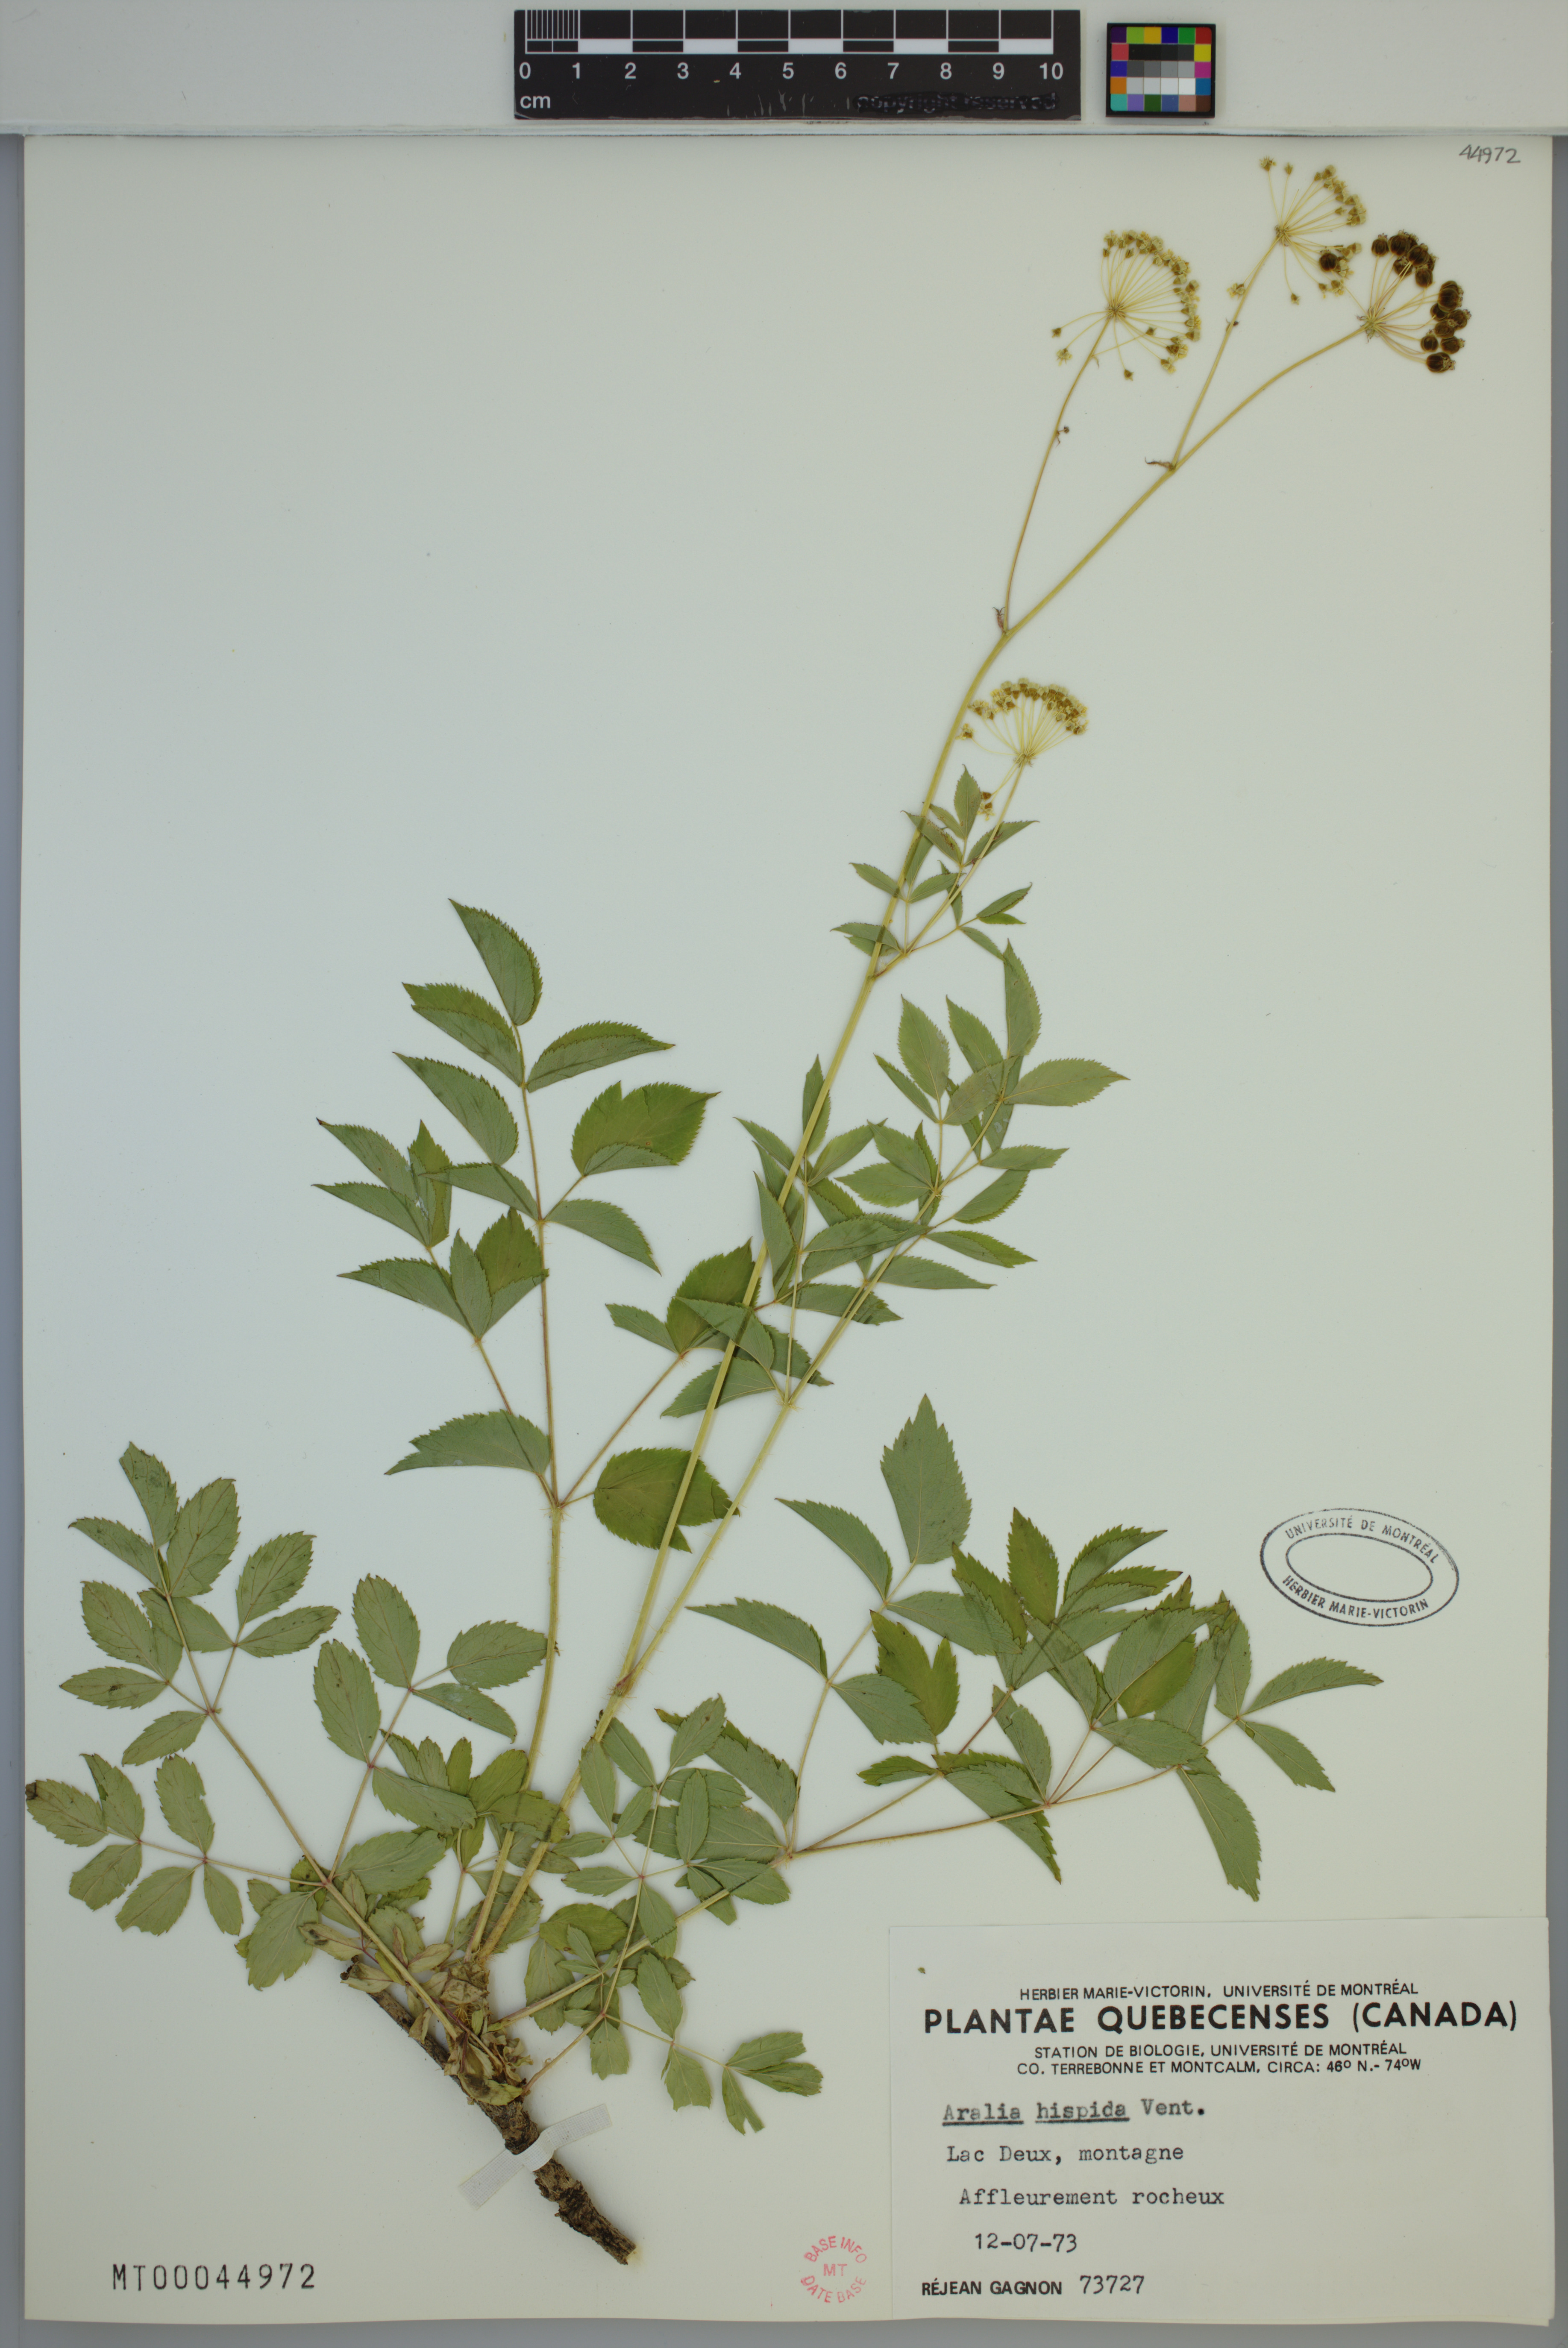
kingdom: Plantae
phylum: Tracheophyta
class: Magnoliopsida
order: Apiales
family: Araliaceae
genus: Aralia
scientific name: Aralia hispida
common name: Bristly sarsaparilla
